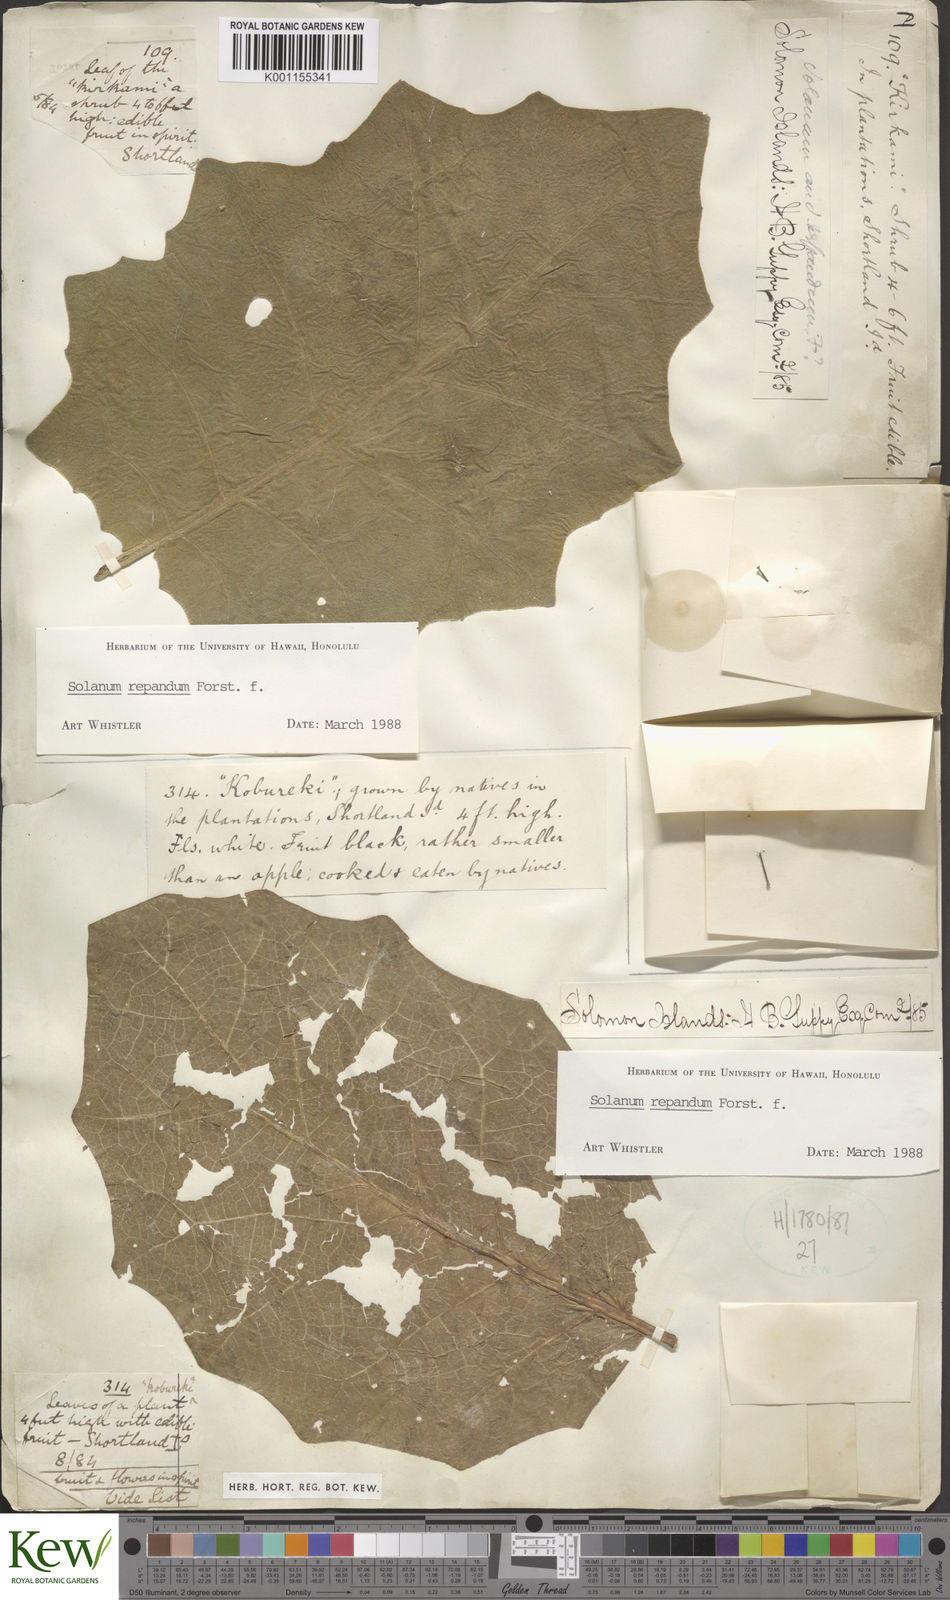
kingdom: Plantae
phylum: Tracheophyta
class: Magnoliopsida
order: Solanales
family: Solanaceae
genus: Solanum
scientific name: Solanum repandum
